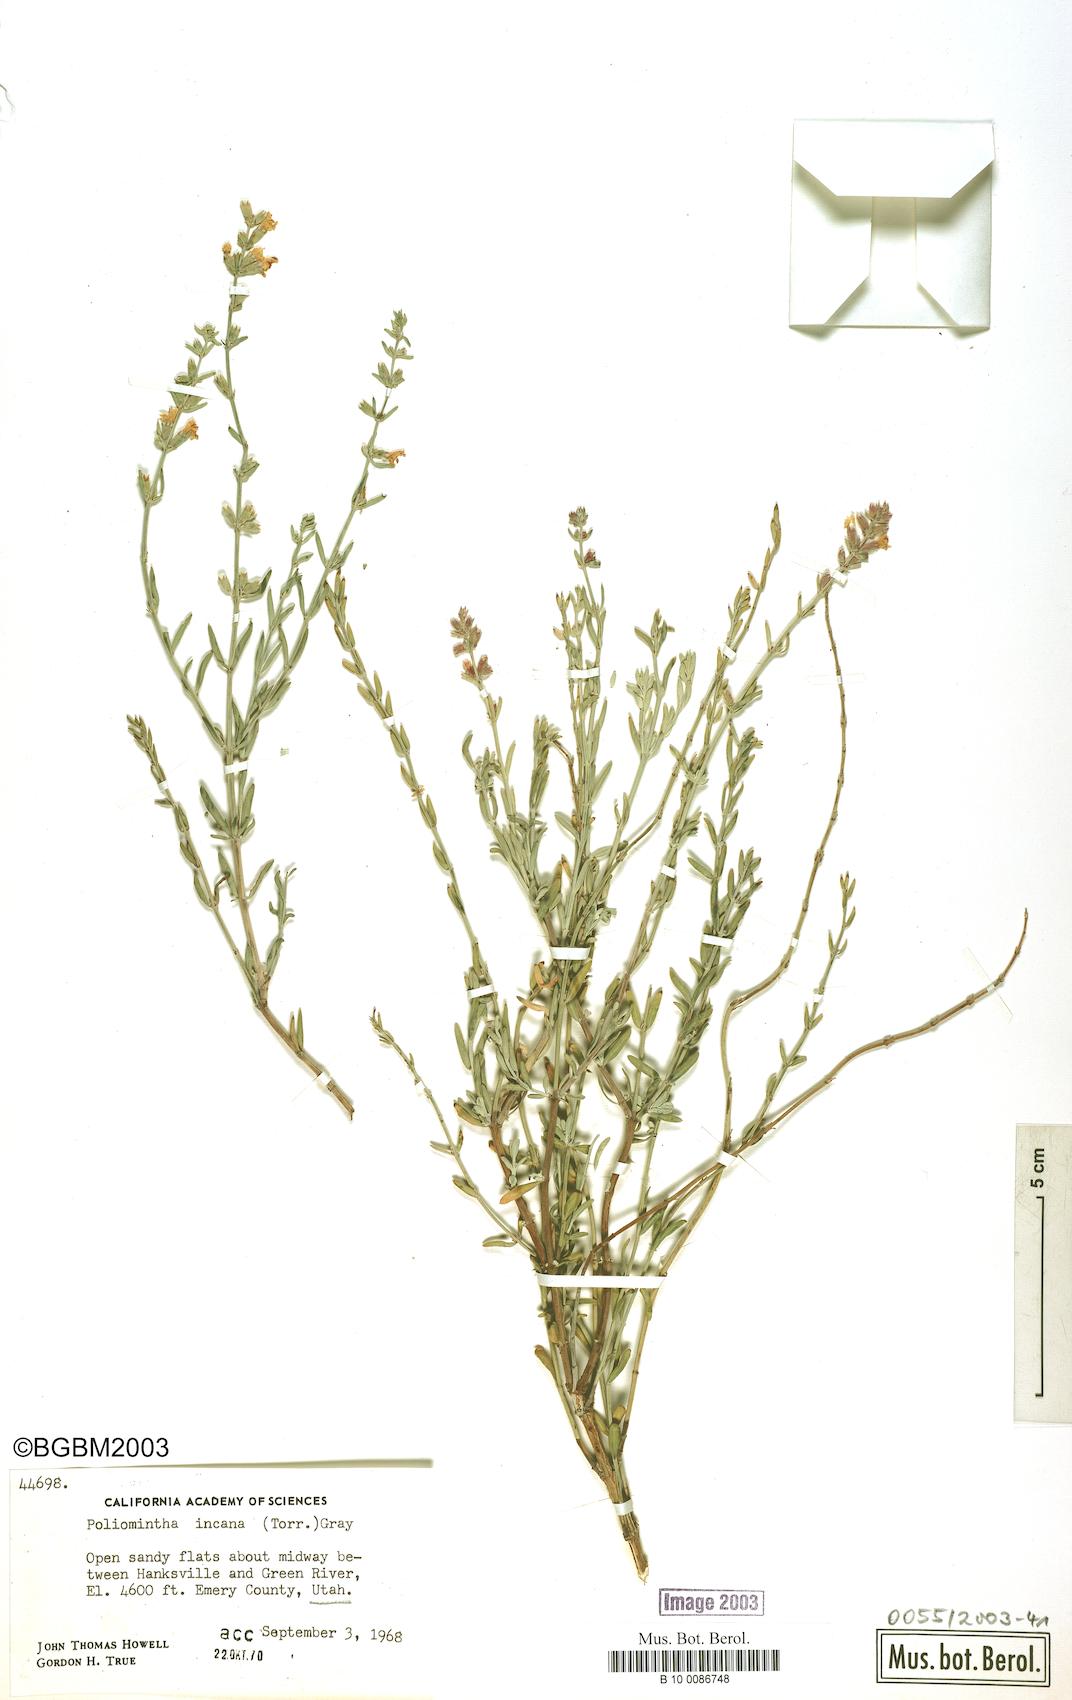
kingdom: Plantae
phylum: Tracheophyta
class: Magnoliopsida
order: Lamiales
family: Lamiaceae
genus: Poliomintha
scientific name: Poliomintha incana
